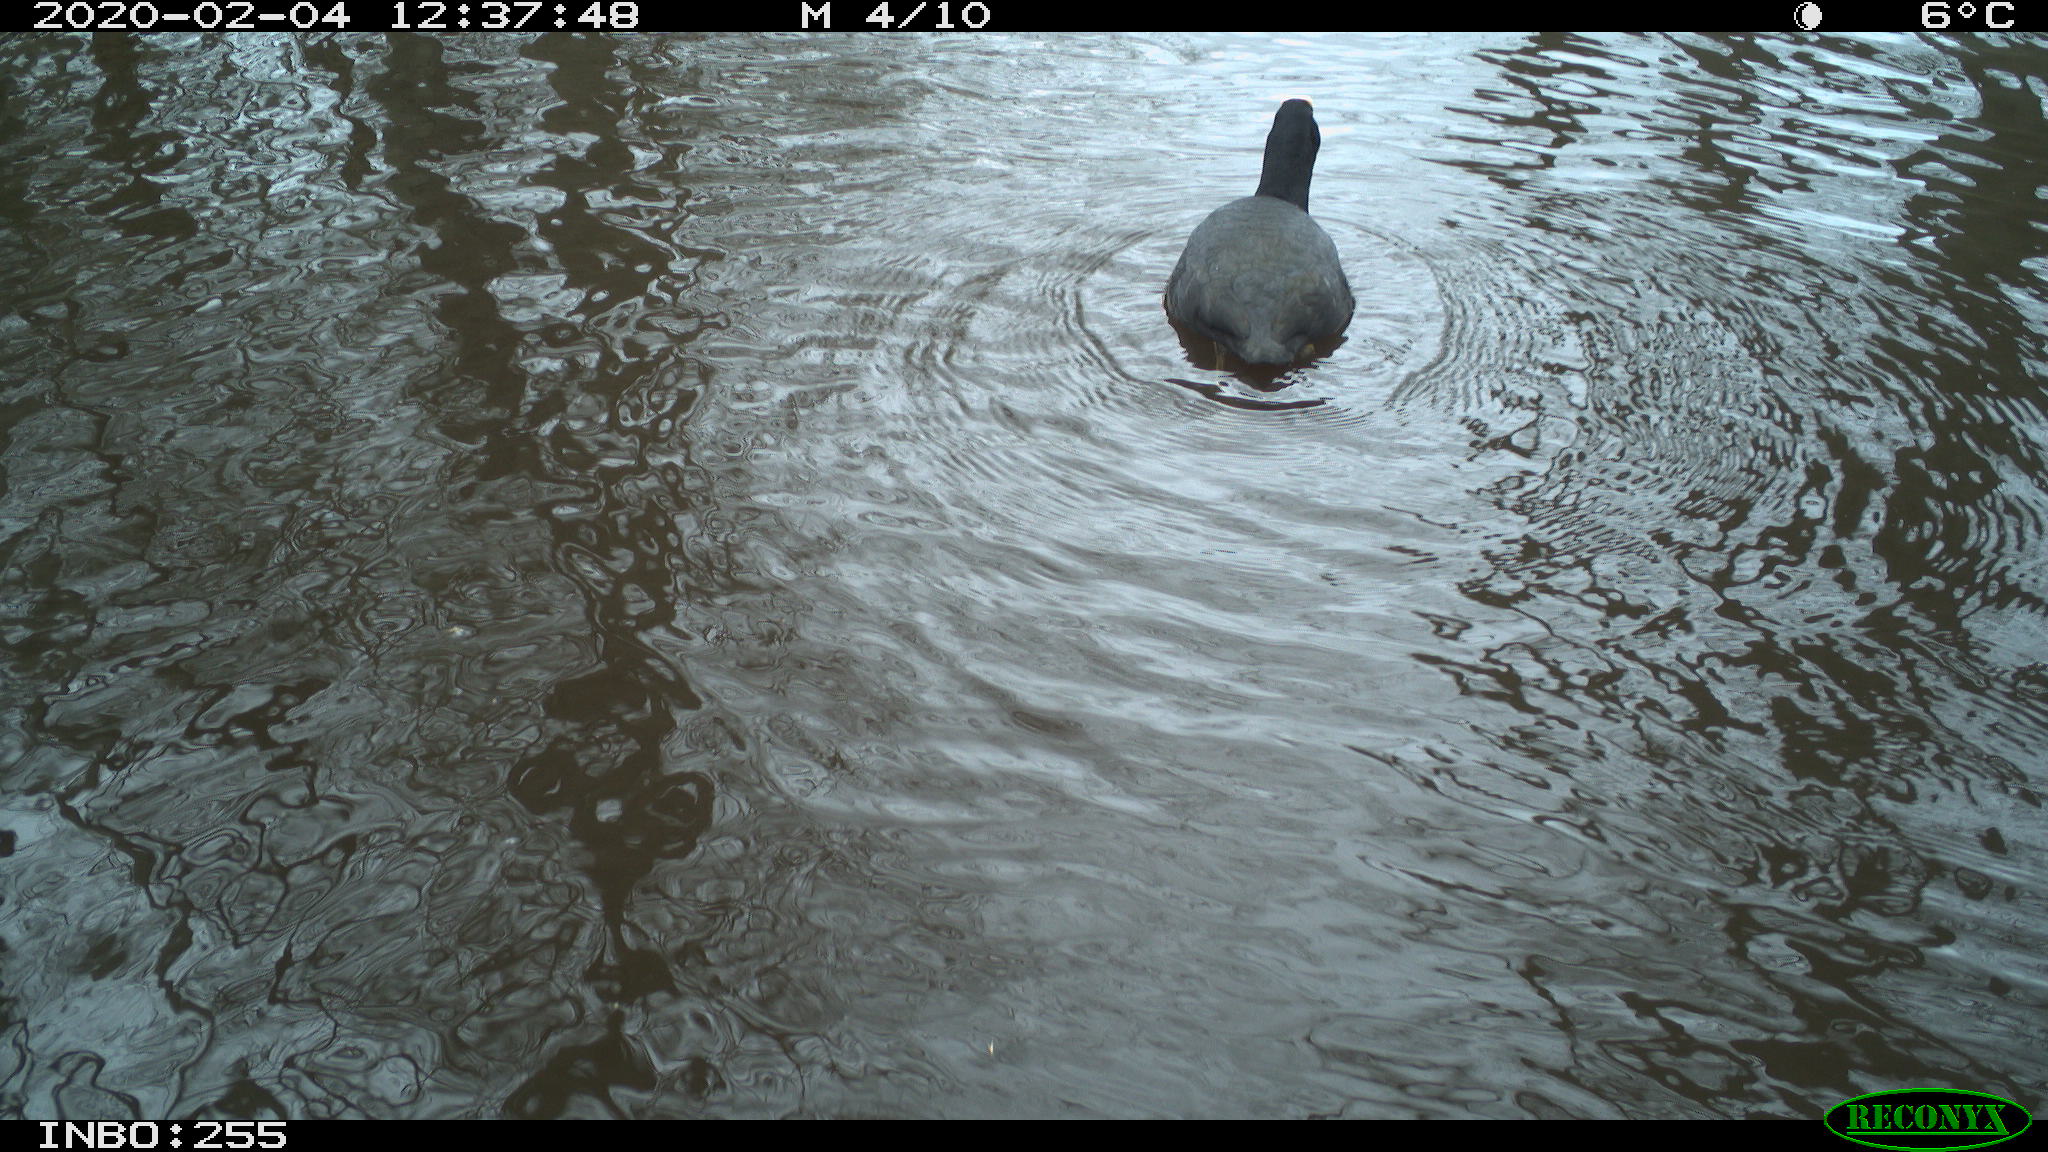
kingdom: Animalia
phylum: Chordata
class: Aves
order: Gruiformes
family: Rallidae
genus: Fulica
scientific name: Fulica atra
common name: Eurasian coot
